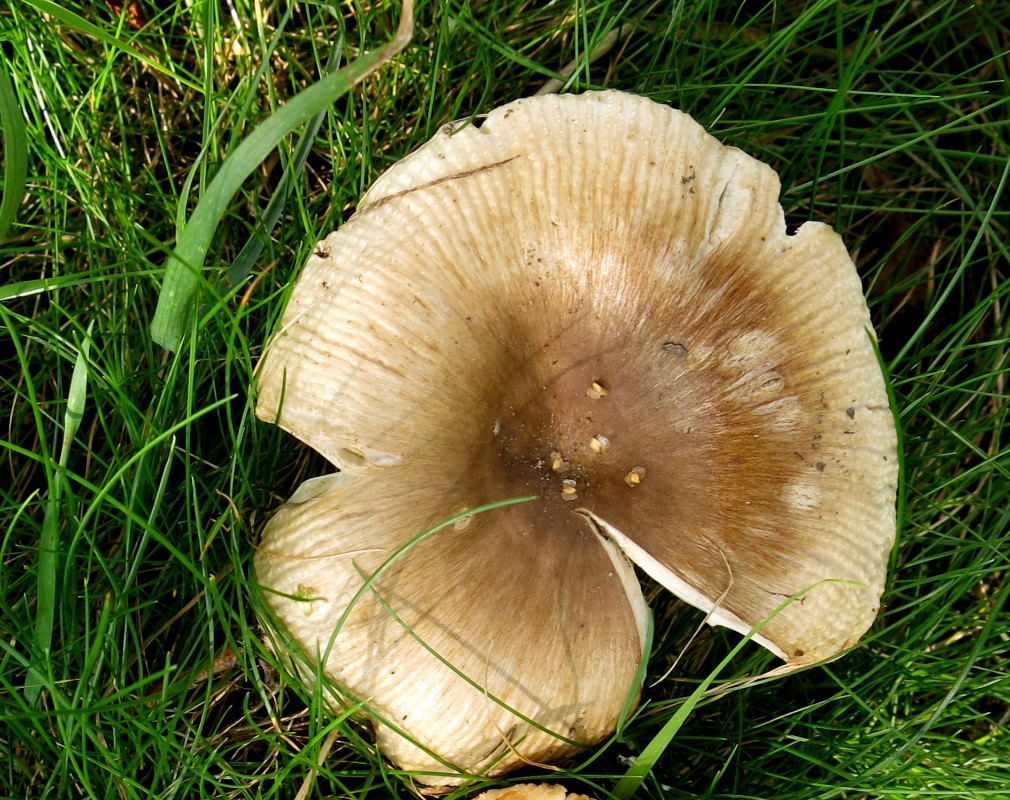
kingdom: Fungi
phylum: Basidiomycota
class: Agaricomycetes
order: Russulales
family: Russulaceae
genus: Russula
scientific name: Russula recondita
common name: mild kam-skørhat
